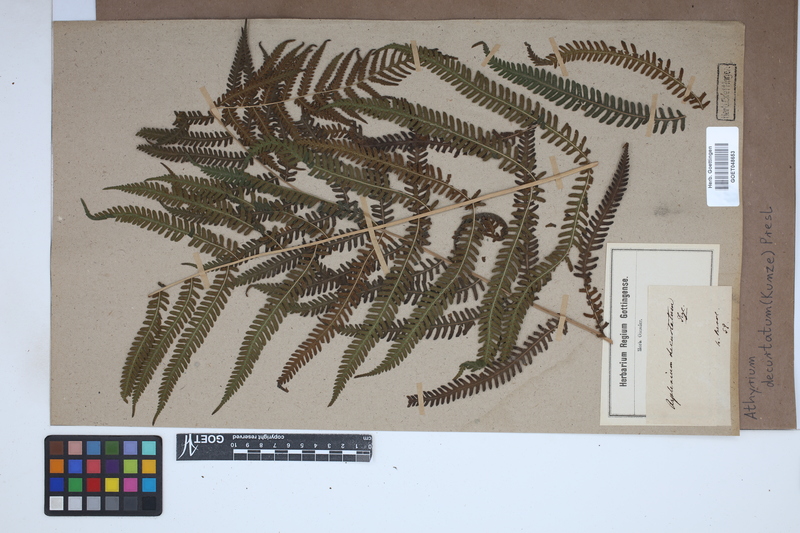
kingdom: Plantae
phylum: Tracheophyta
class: Polypodiopsida
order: Polypodiales
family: Thelypteridaceae
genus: Amauropelta
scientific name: Amauropelta decurtata
